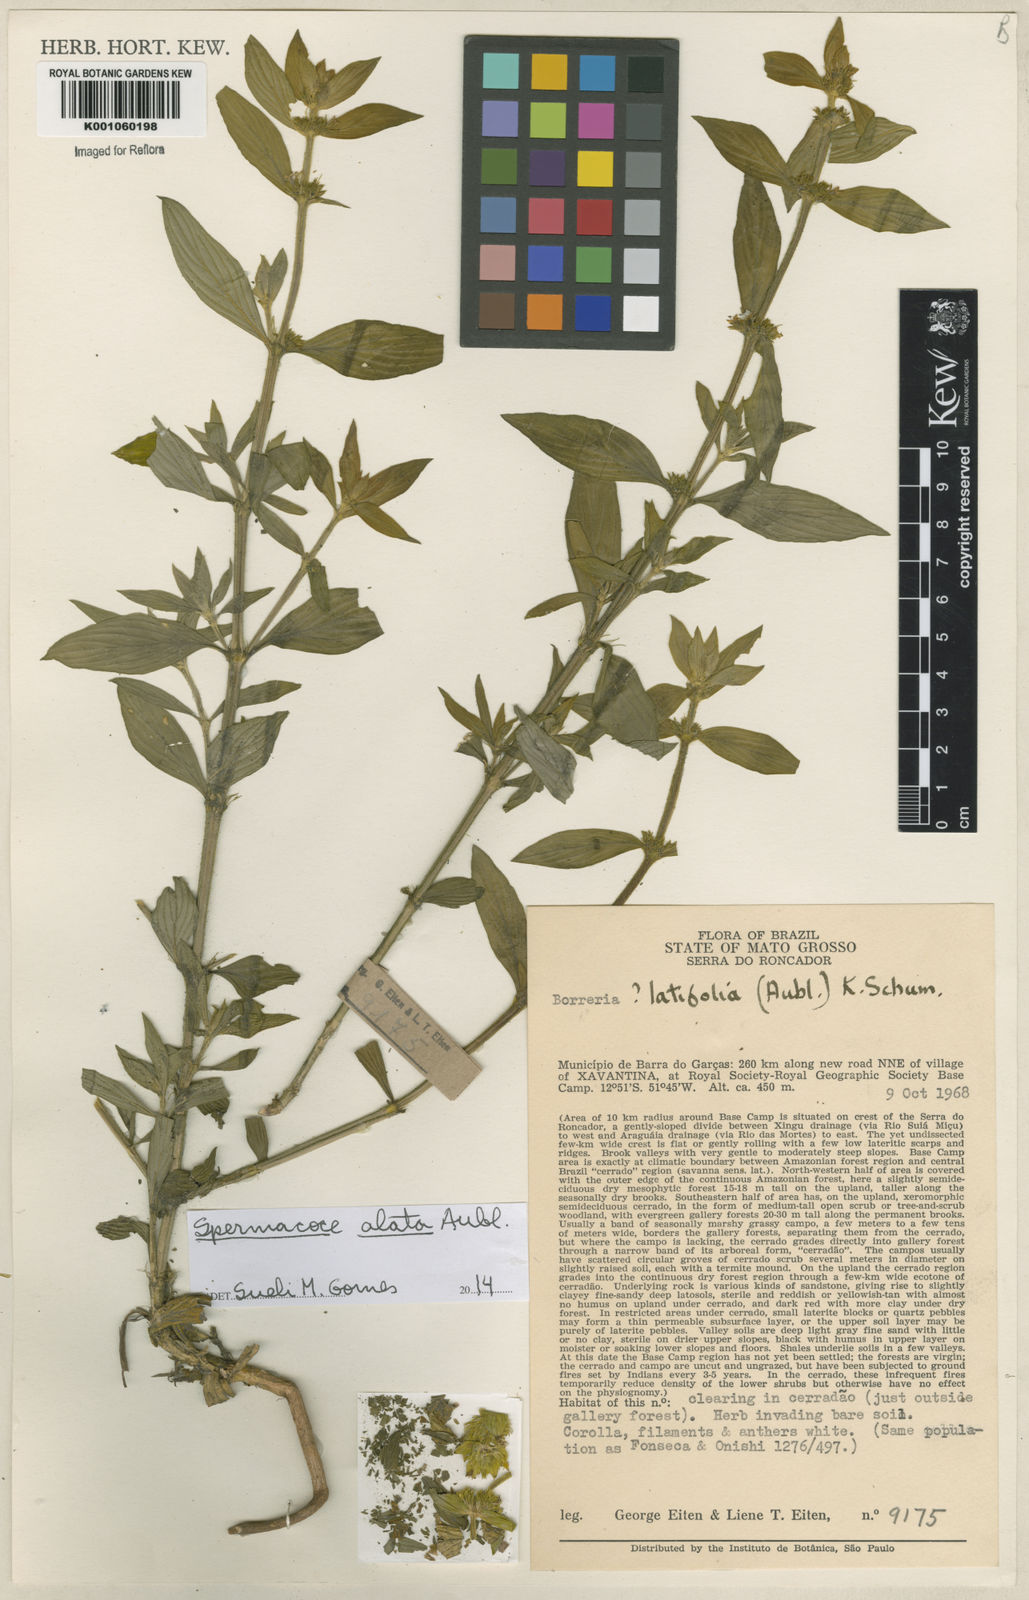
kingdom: Plantae
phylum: Tracheophyta
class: Magnoliopsida
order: Gentianales
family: Rubiaceae
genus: Spermacoce
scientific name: Spermacoce
